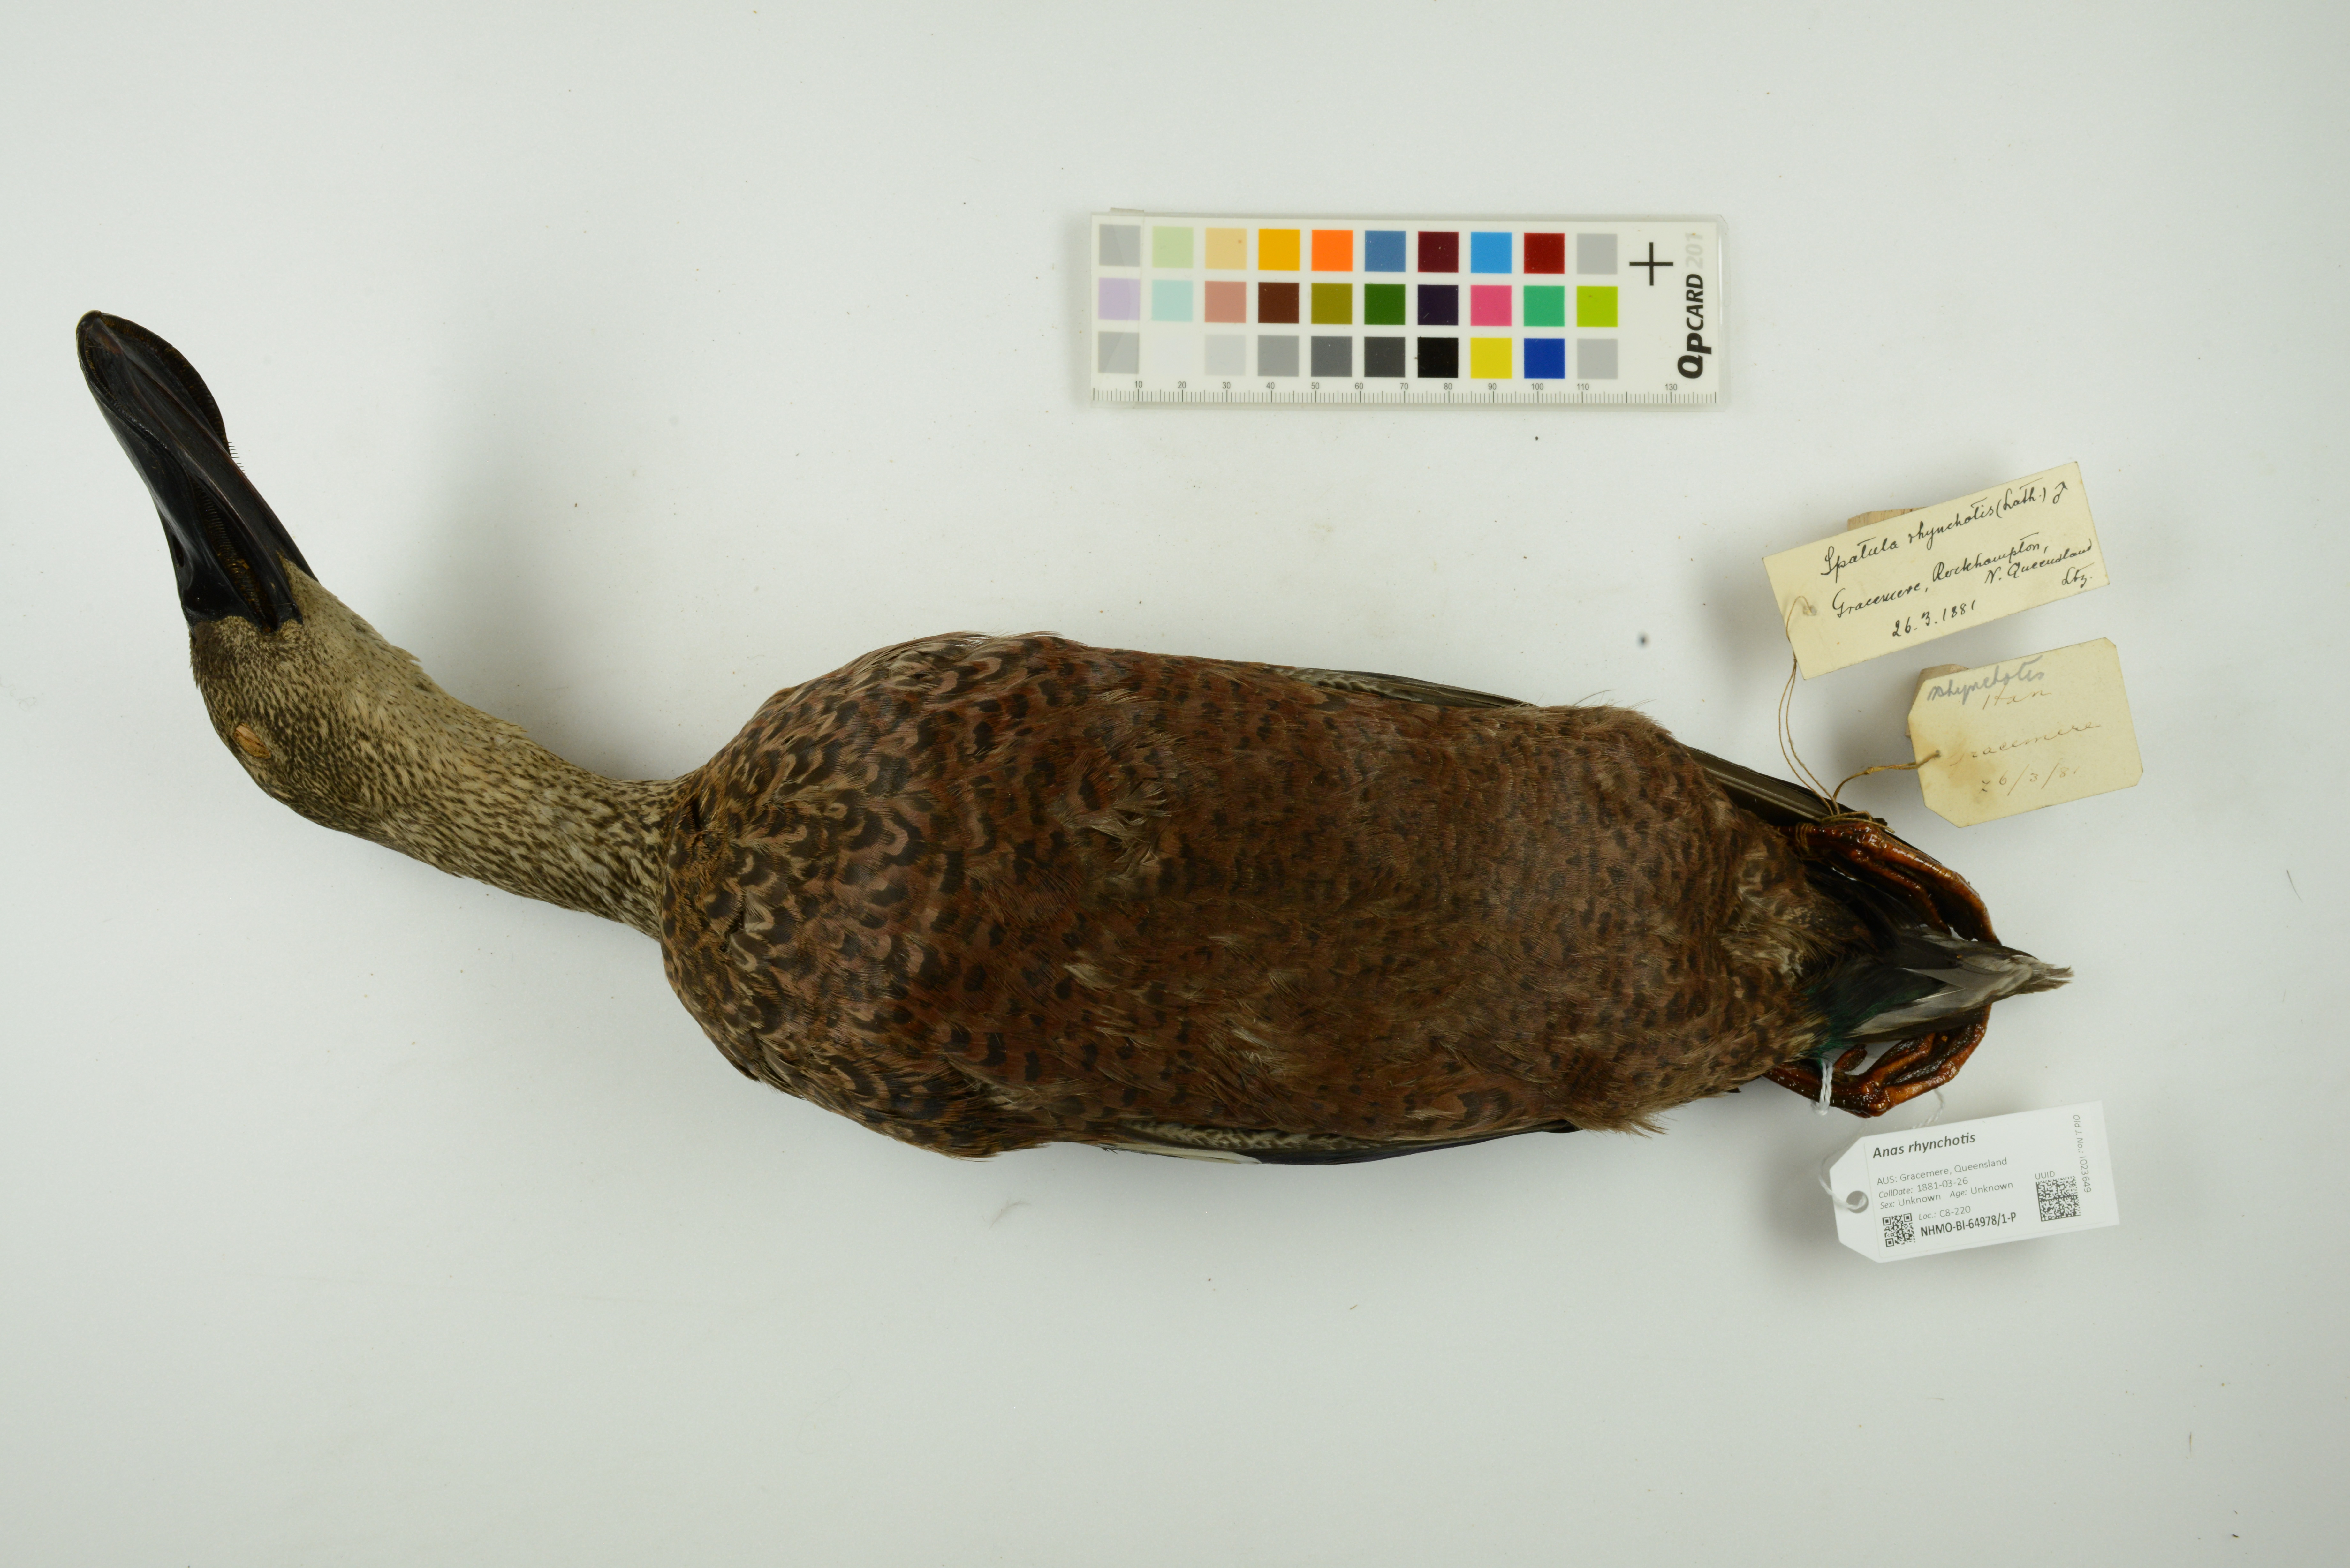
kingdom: Animalia
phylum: Chordata
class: Aves
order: Anseriformes
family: Anatidae
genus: Spatula
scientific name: Spatula rhynchotis
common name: Australian shoveler
